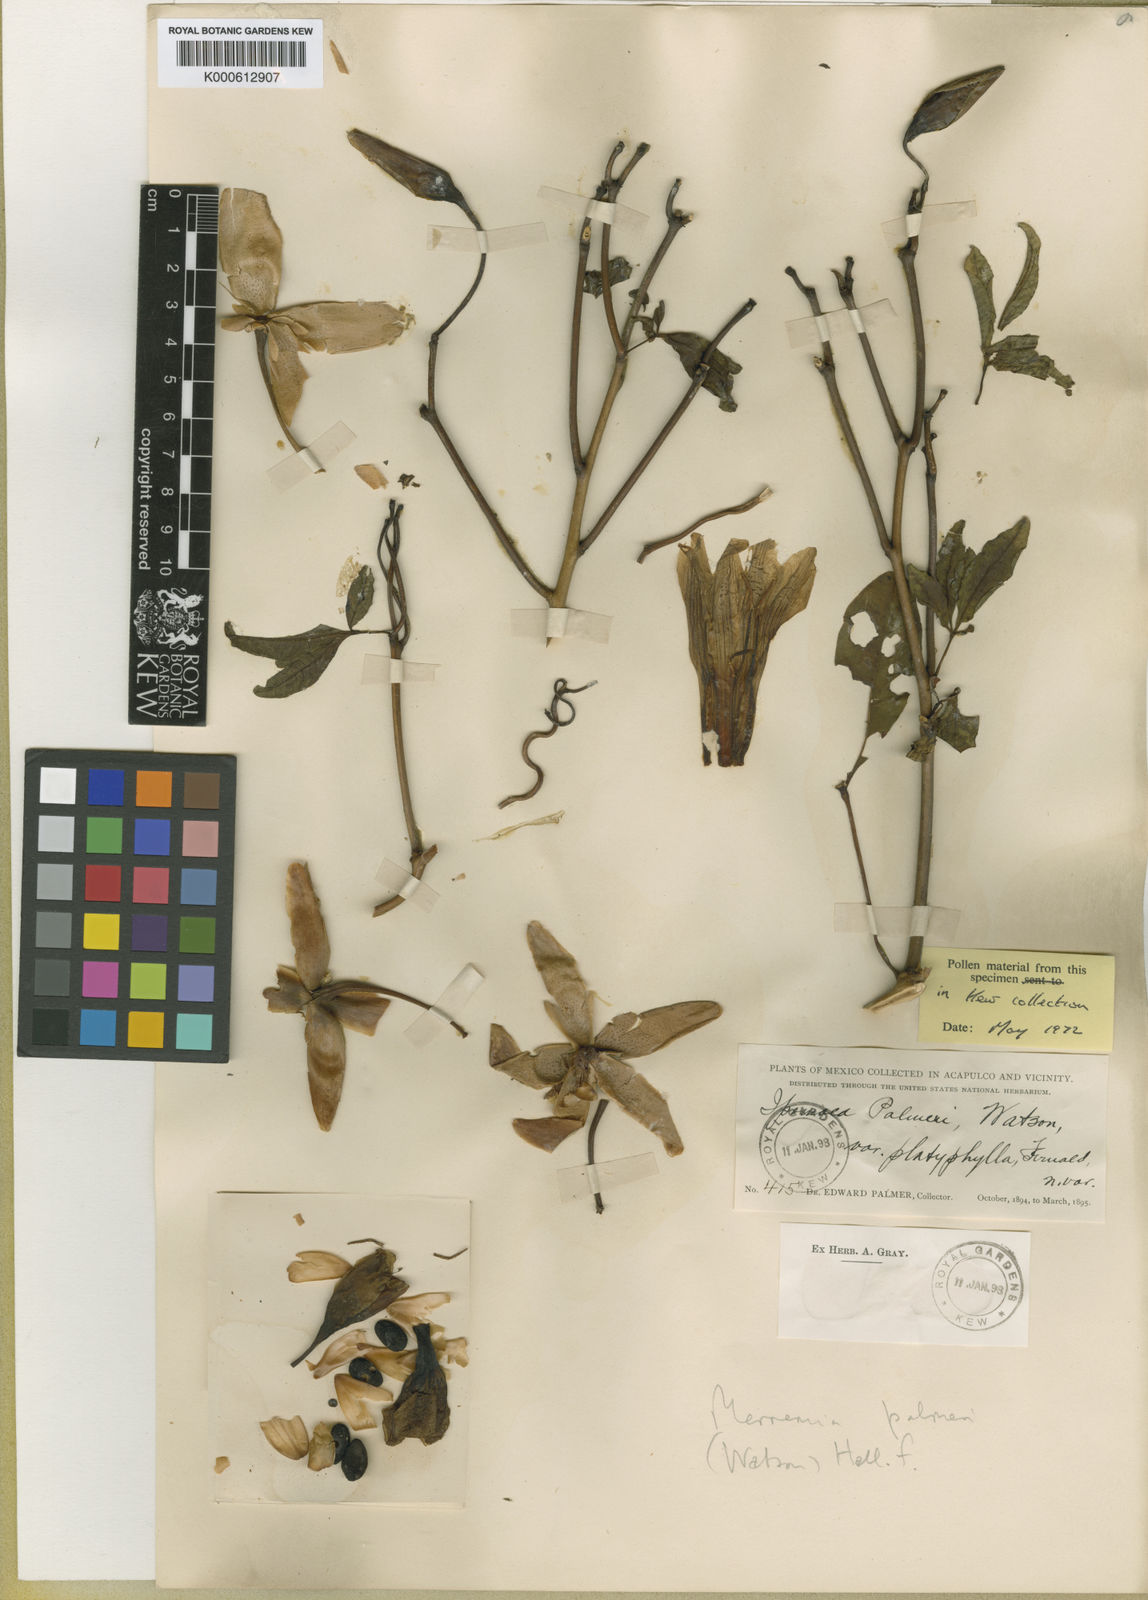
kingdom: Plantae
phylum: Tracheophyta
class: Magnoliopsida
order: Solanales
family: Convolvulaceae
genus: Distimake
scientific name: Distimake palmeri
